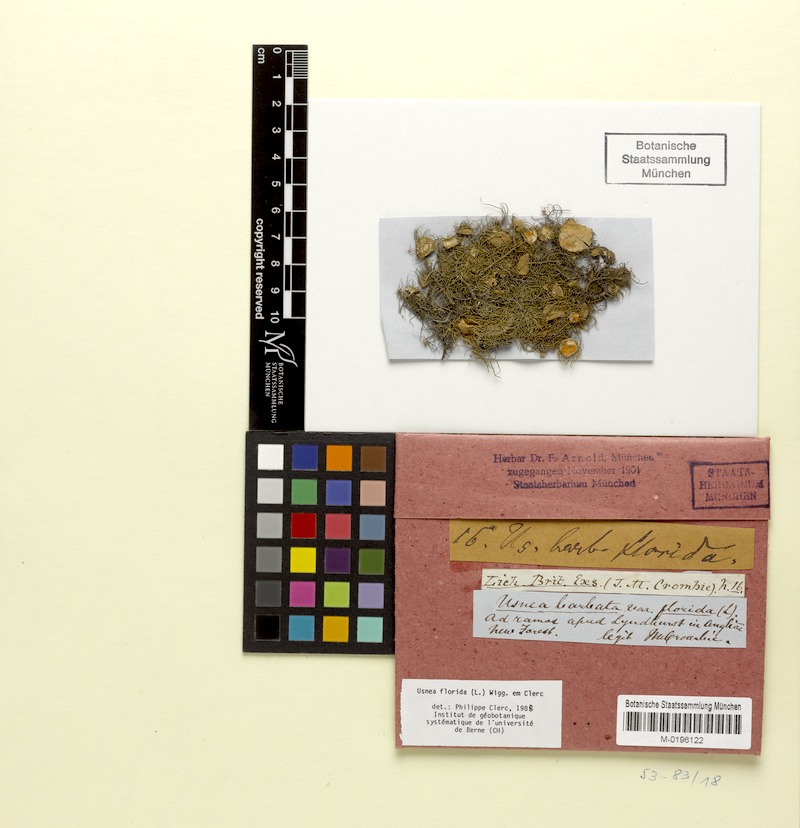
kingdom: Fungi
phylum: Ascomycota
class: Lecanoromycetes
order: Lecanorales
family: Parmeliaceae
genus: Usnea
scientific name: Usnea florida
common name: Witches' whiskers lichen
